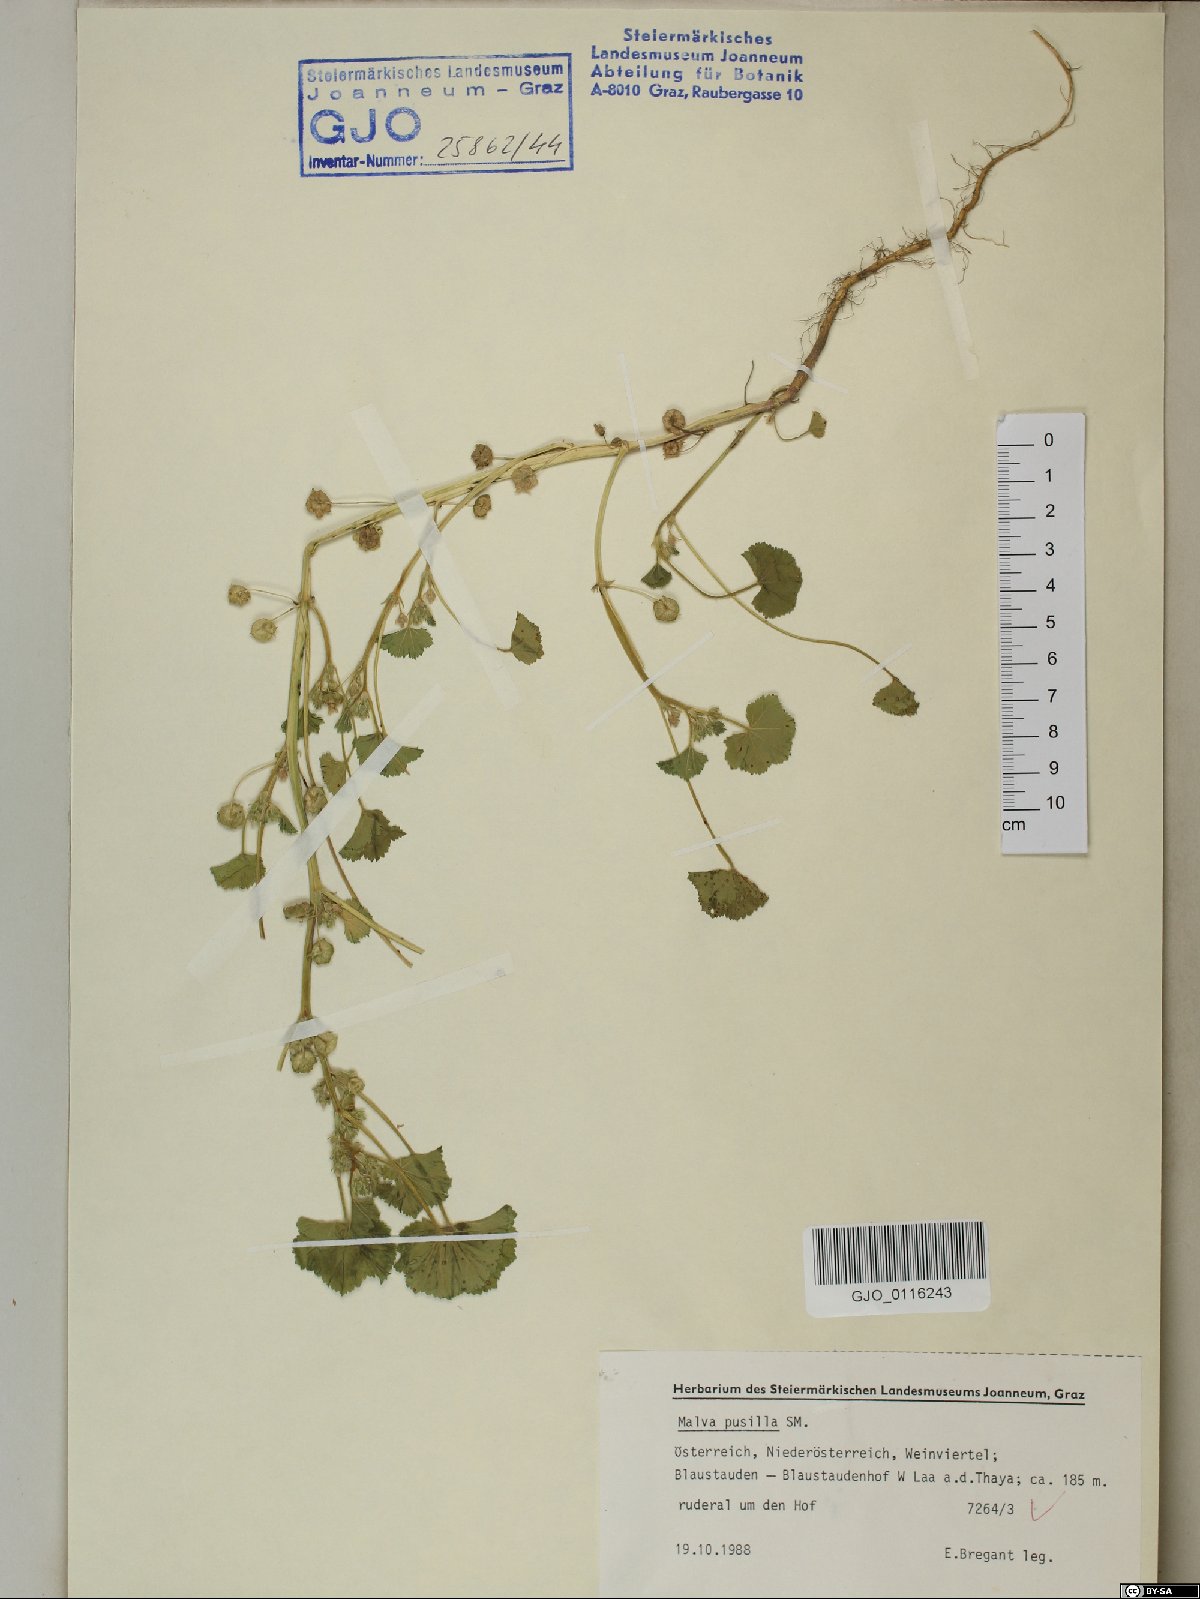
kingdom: Plantae
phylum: Tracheophyta
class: Magnoliopsida
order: Malvales
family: Malvaceae
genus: Malva
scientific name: Malva pusilla
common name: Small mallow
